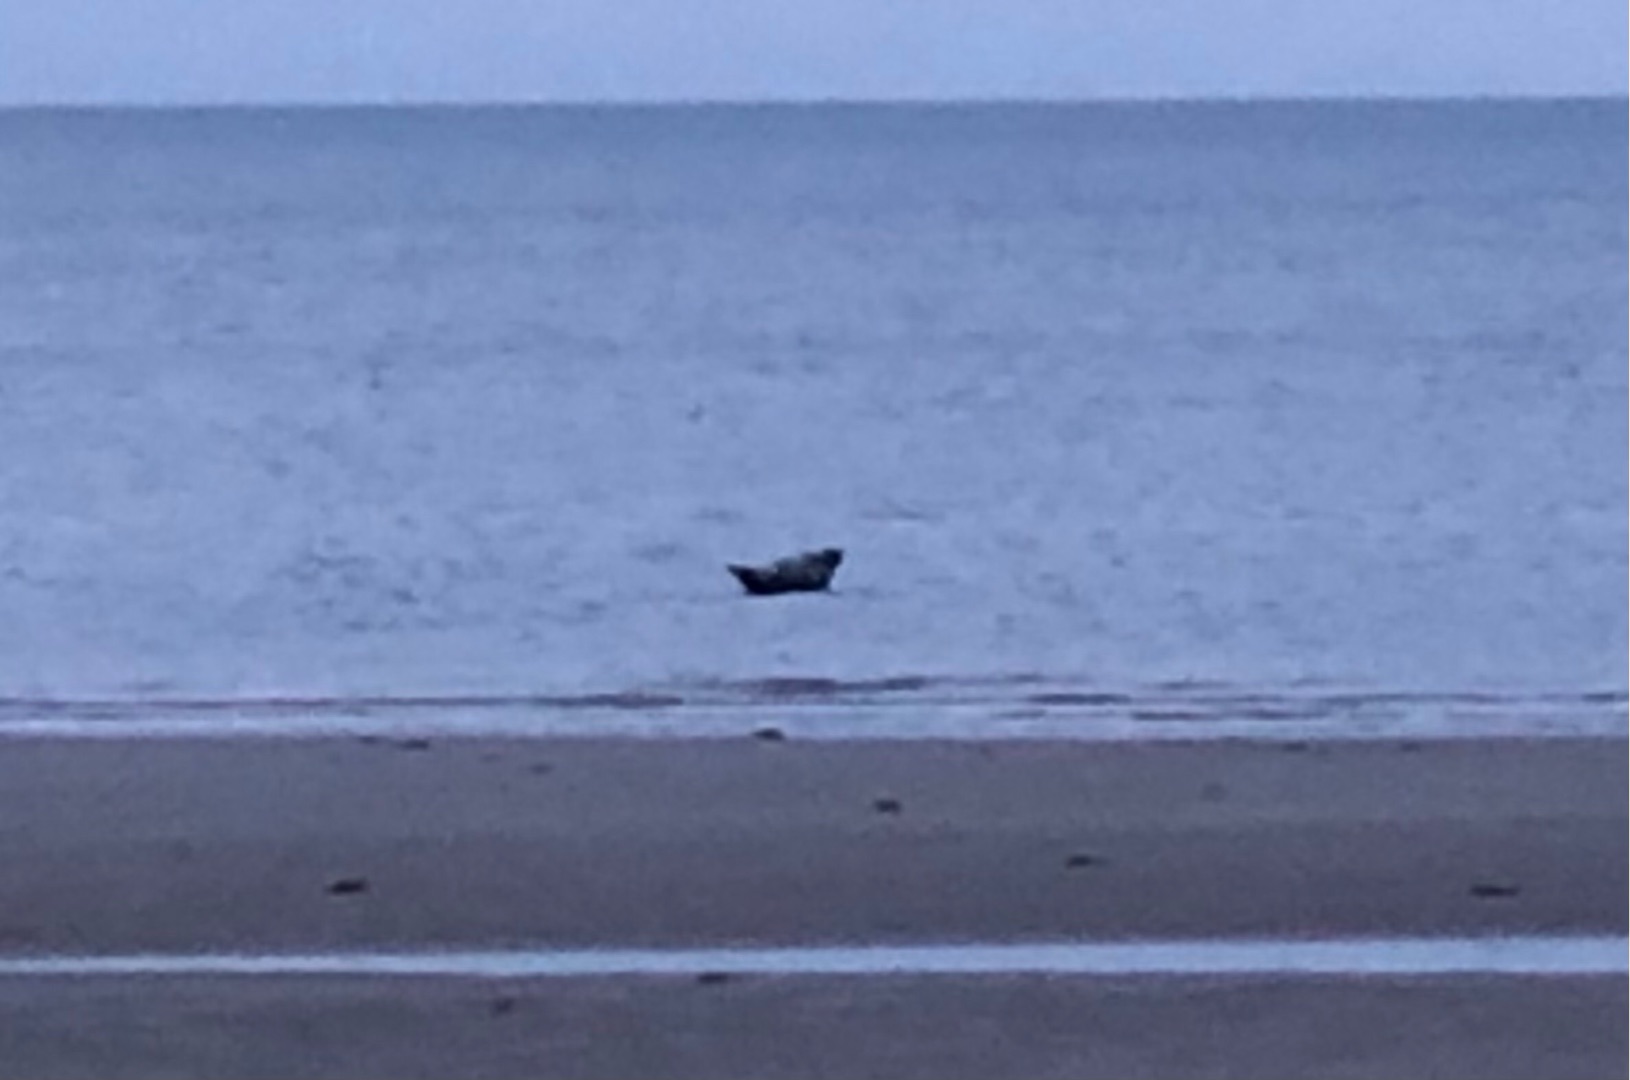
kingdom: Animalia
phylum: Chordata
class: Mammalia
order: Carnivora
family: Phocidae
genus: Phoca
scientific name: Phoca vitulina
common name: Spættet sæl
